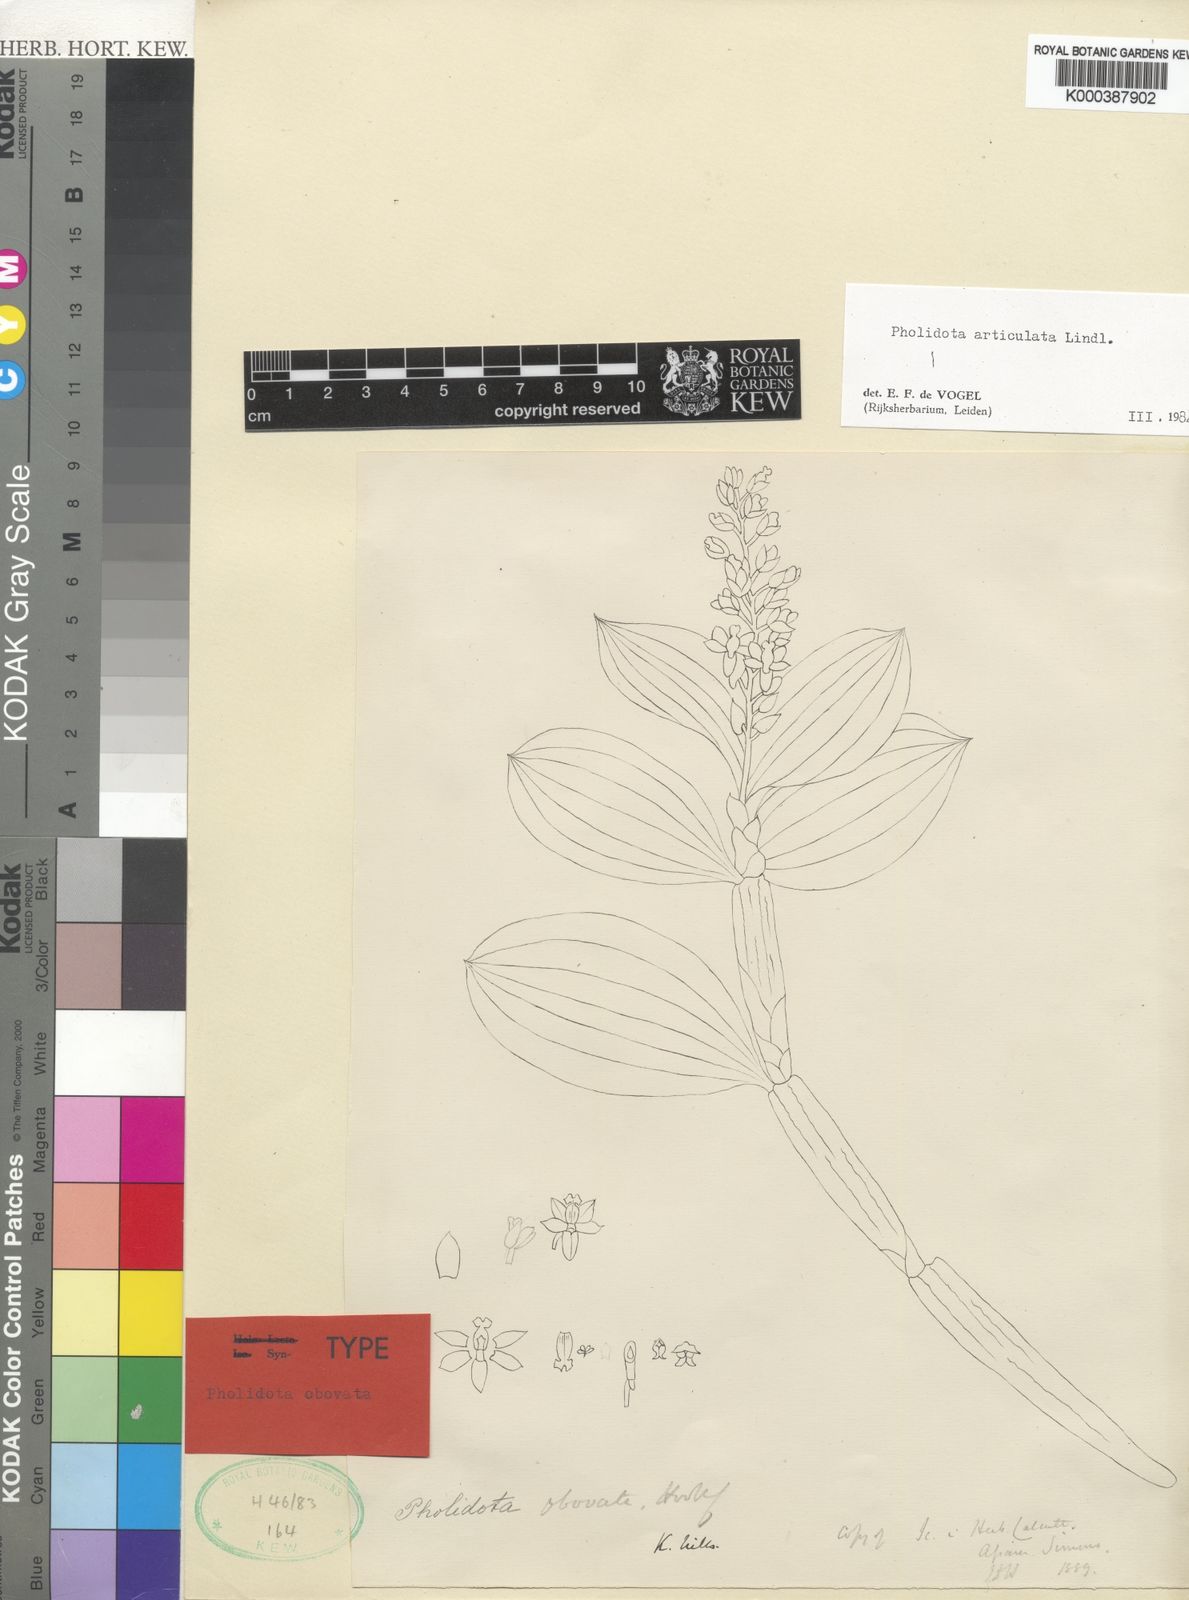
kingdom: Plantae
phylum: Tracheophyta
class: Liliopsida
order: Asparagales
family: Orchidaceae
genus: Coelogyne
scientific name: Coelogyne articulata
